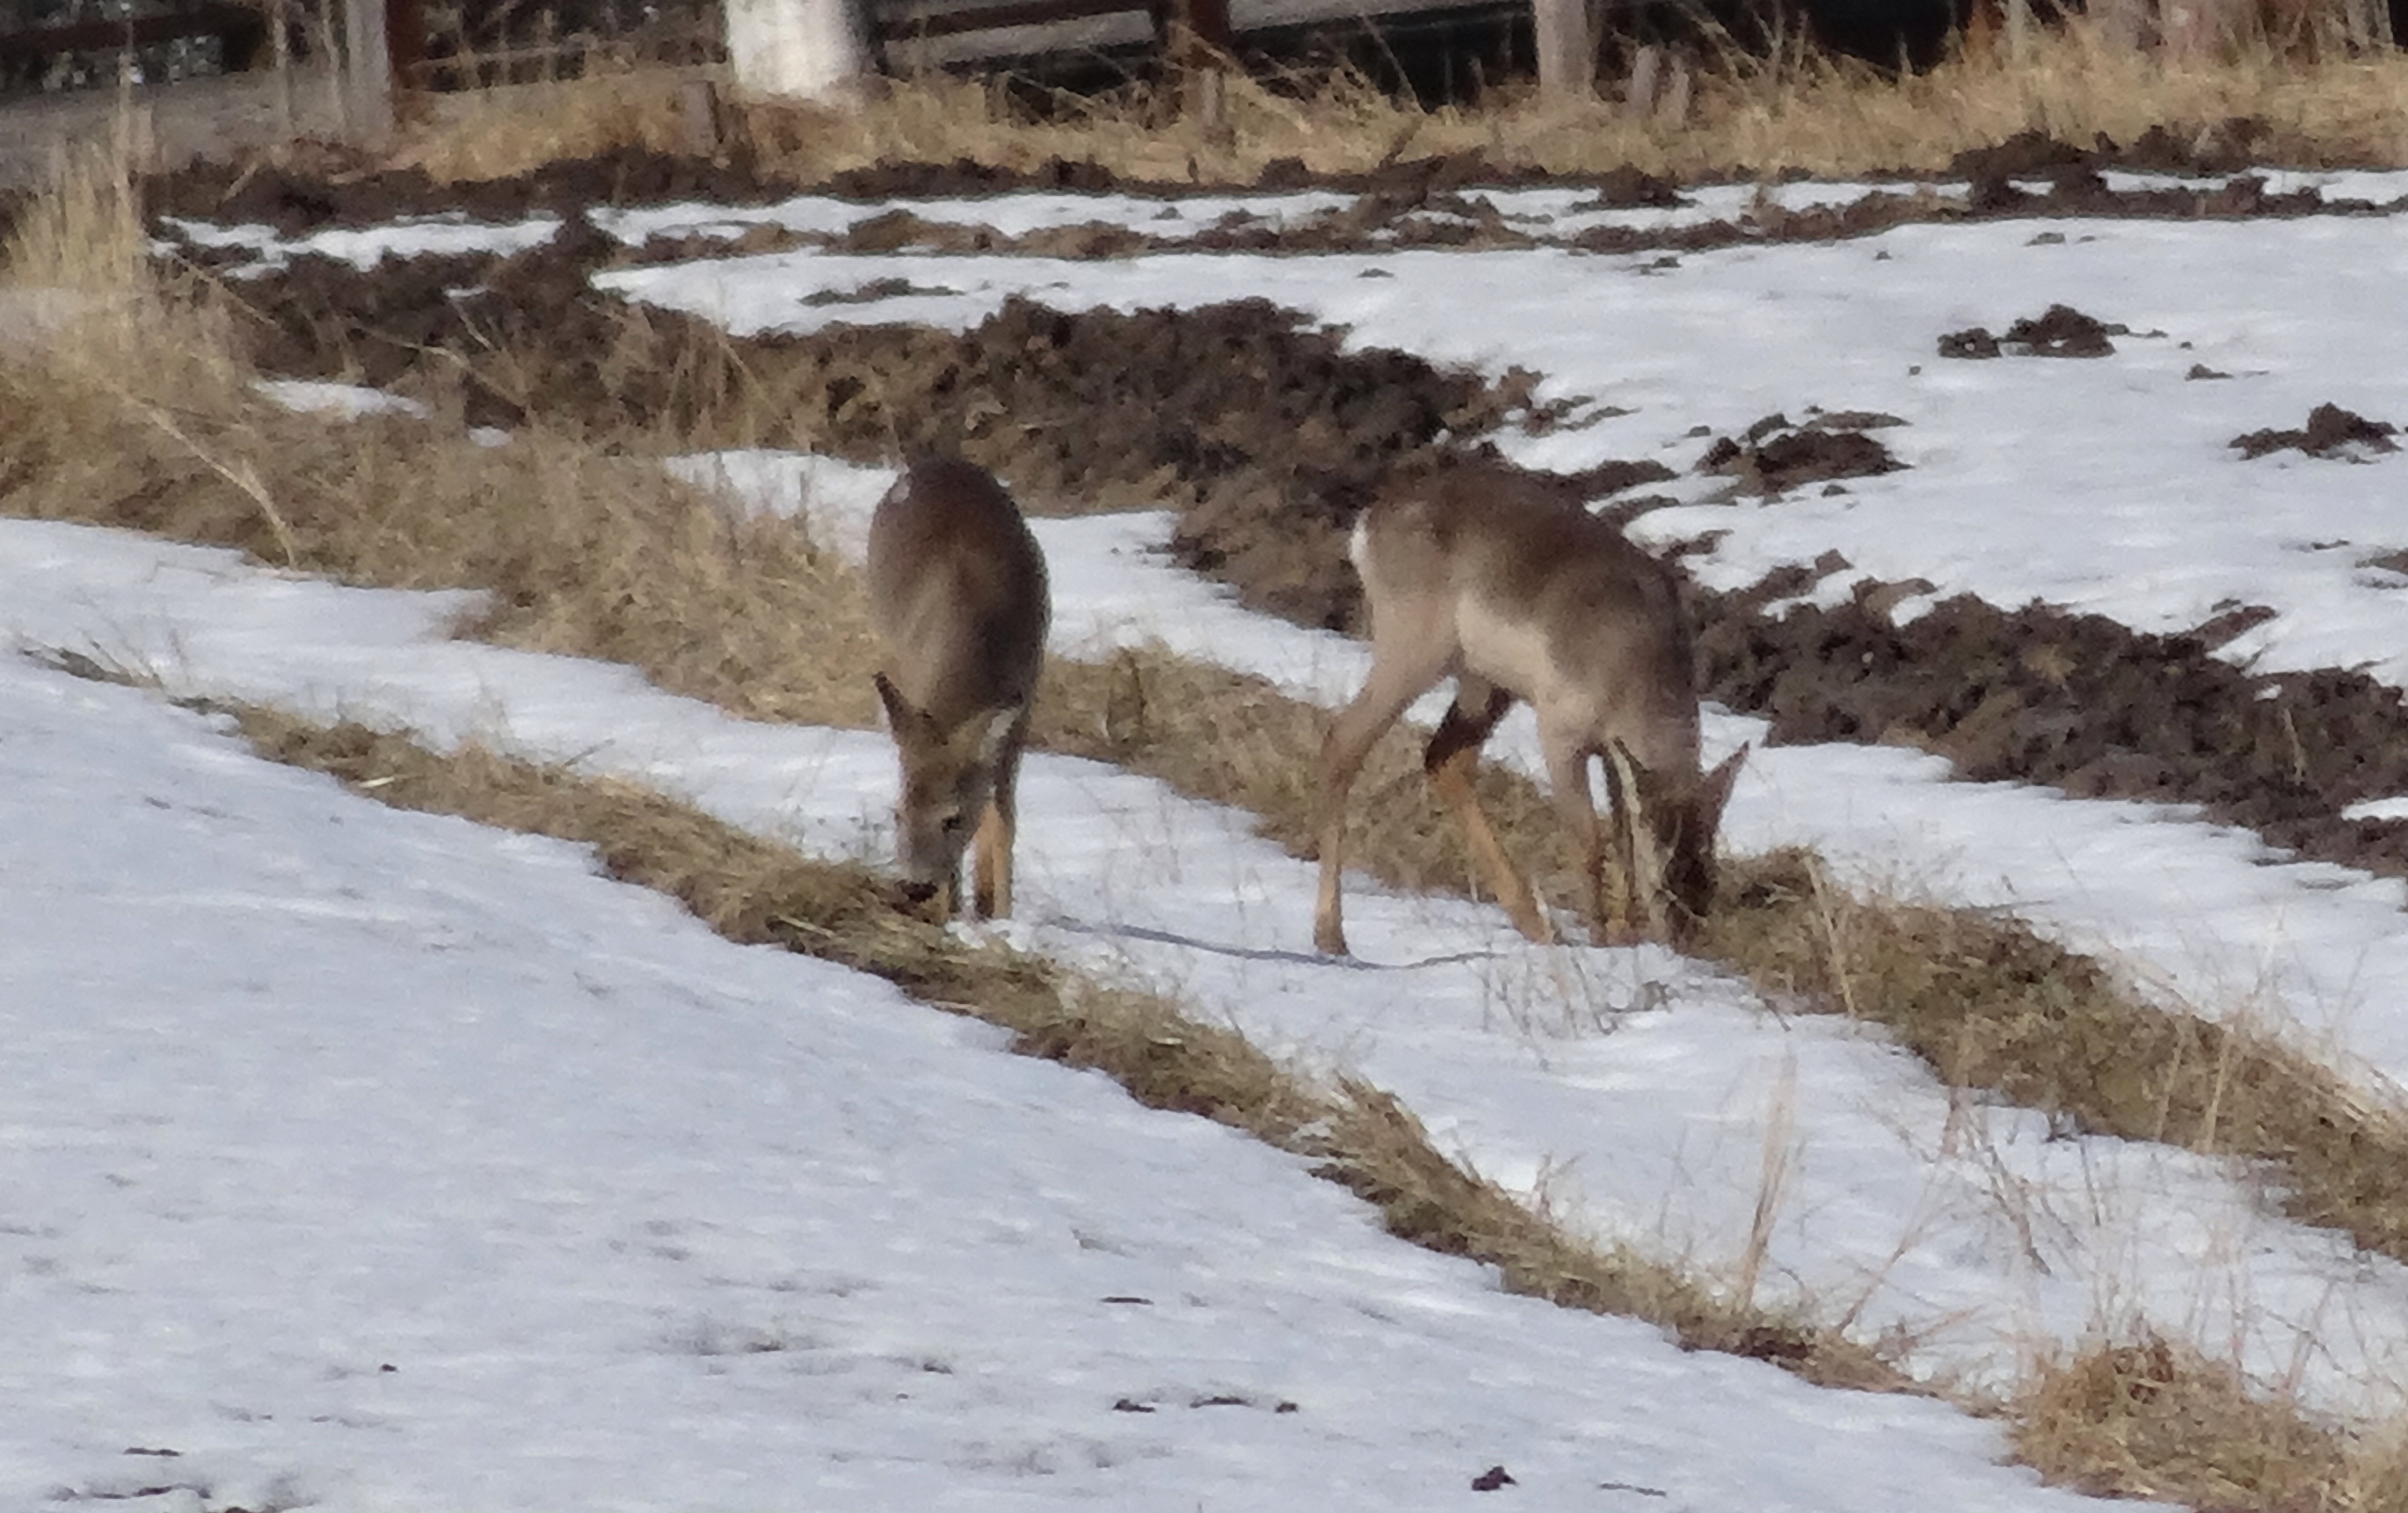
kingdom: Animalia
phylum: Chordata
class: Mammalia
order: Artiodactyla
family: Cervidae
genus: Capreolus
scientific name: Capreolus capreolus
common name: Western roe deer
